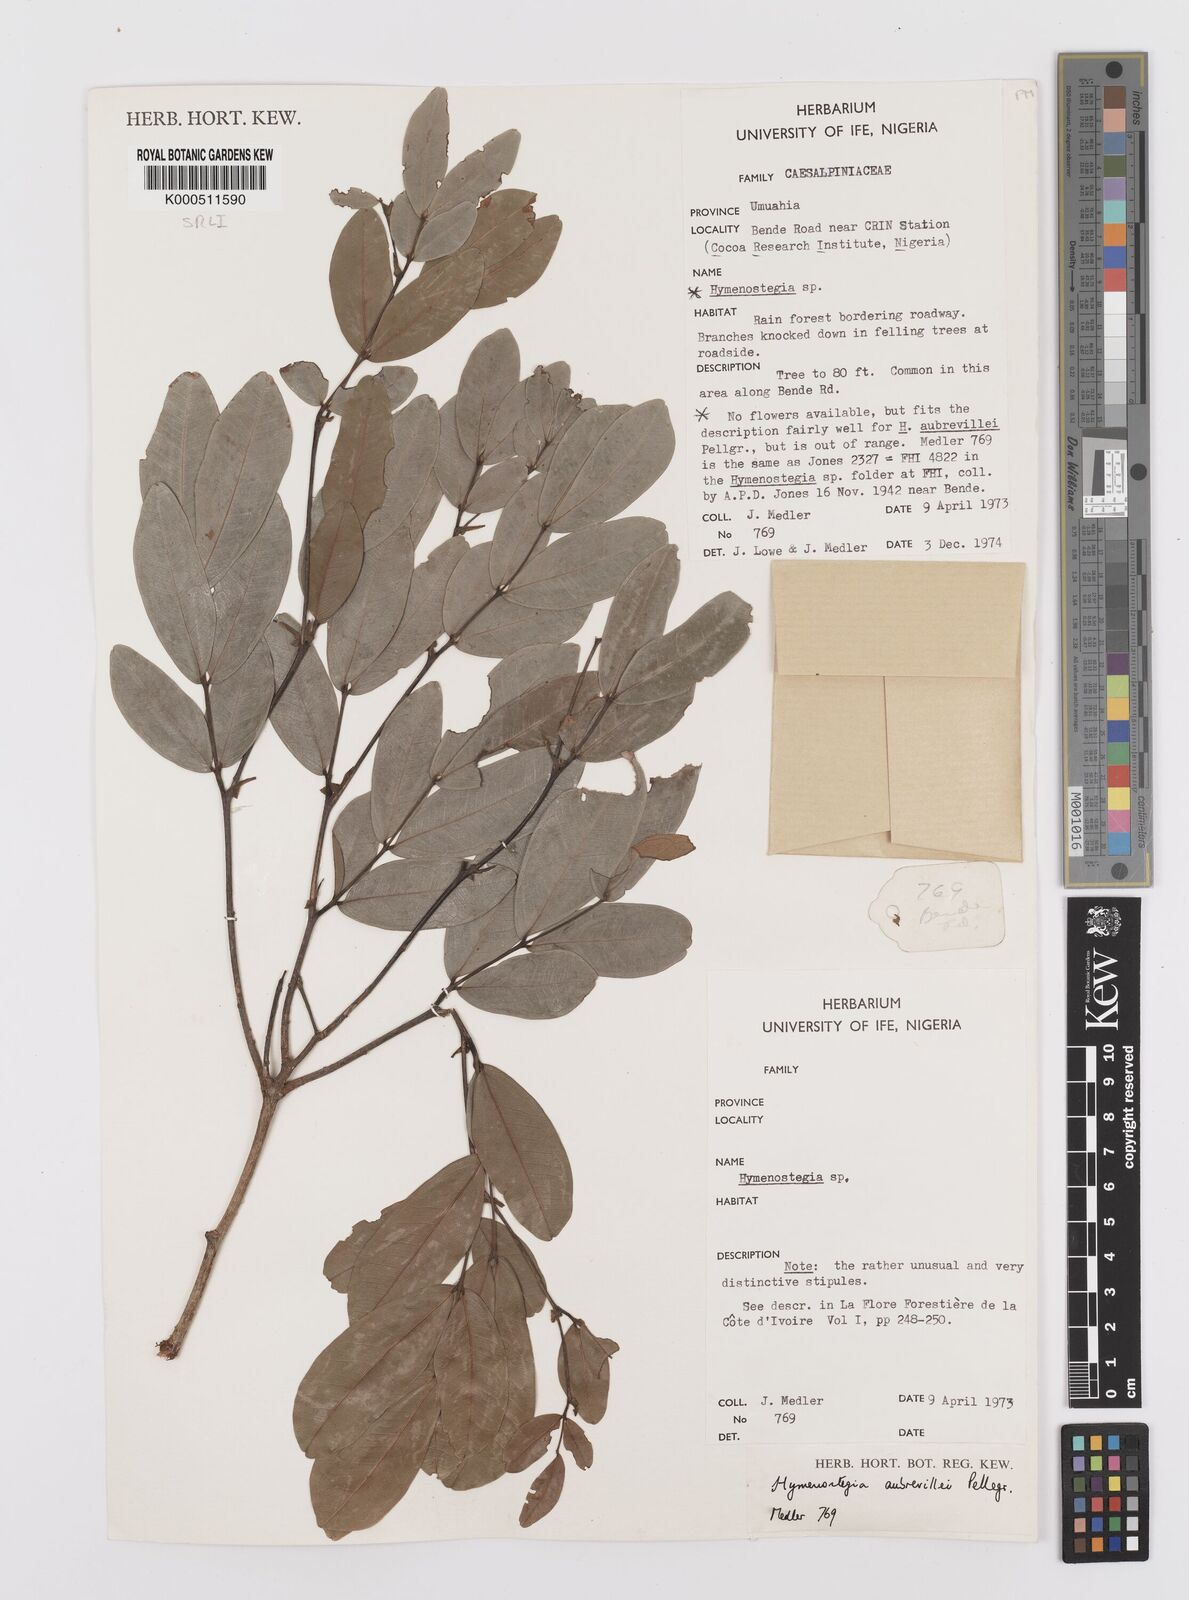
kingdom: Plantae
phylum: Tracheophyta
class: Magnoliopsida
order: Fabales
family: Fabaceae
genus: Hymenostegia
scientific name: Hymenostegia aubrevillei
